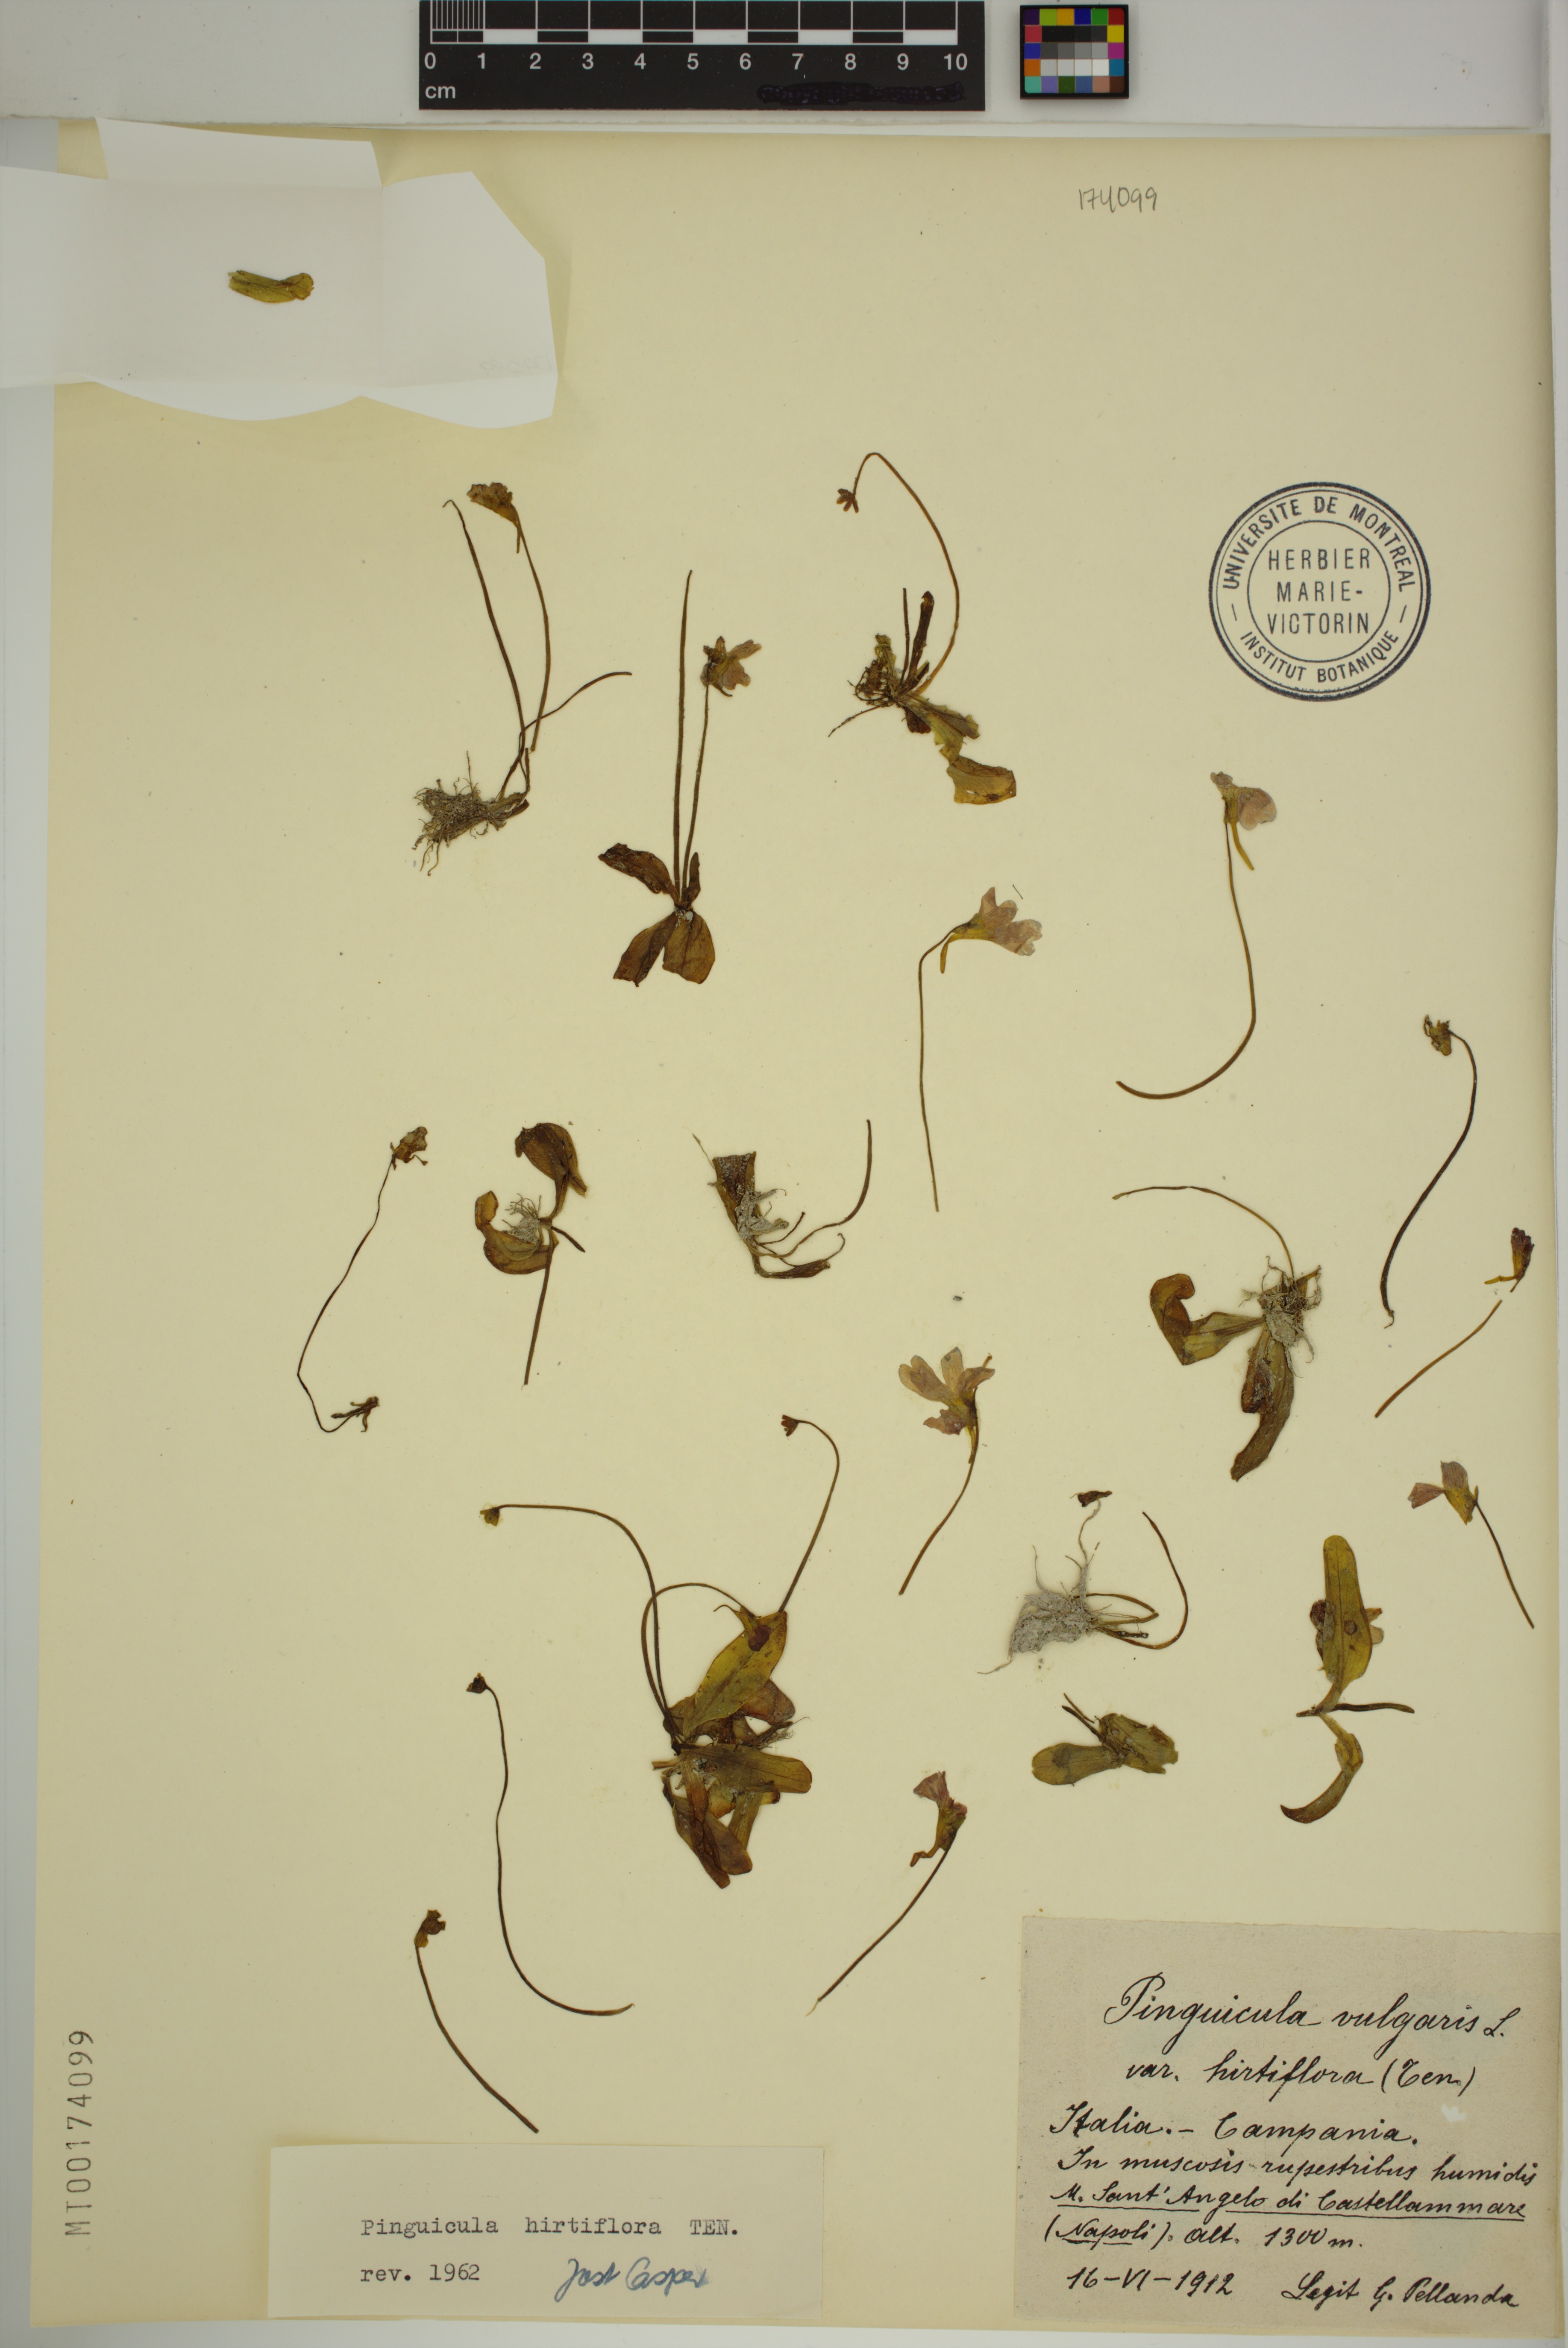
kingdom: Plantae
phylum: Tracheophyta
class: Magnoliopsida
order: Lamiales
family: Lentibulariaceae
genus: Pinguicula
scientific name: Pinguicula crystallina
